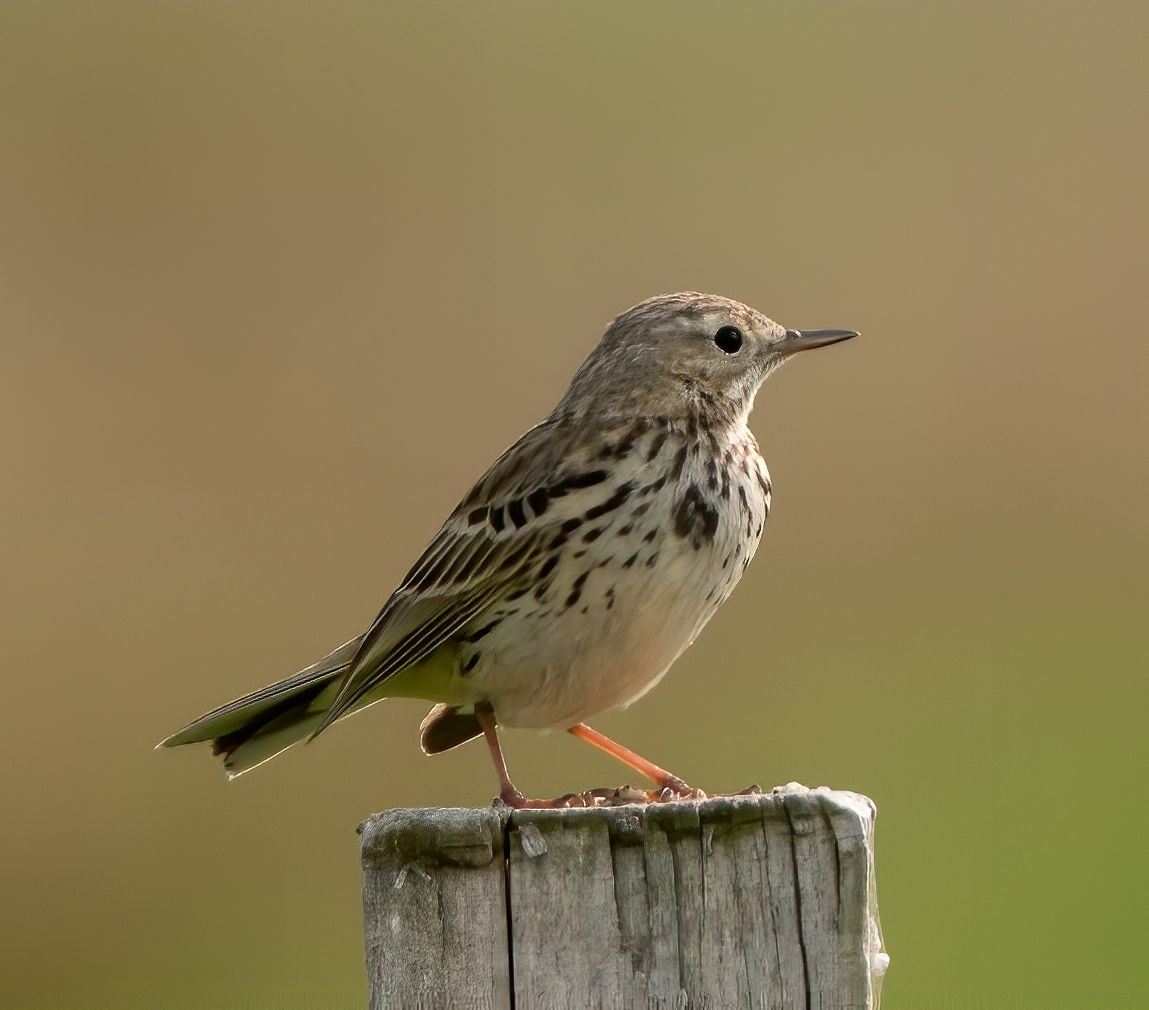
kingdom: Animalia
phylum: Chordata
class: Aves
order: Passeriformes
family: Motacillidae
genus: Anthus
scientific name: Anthus pratensis
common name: Engpiber
